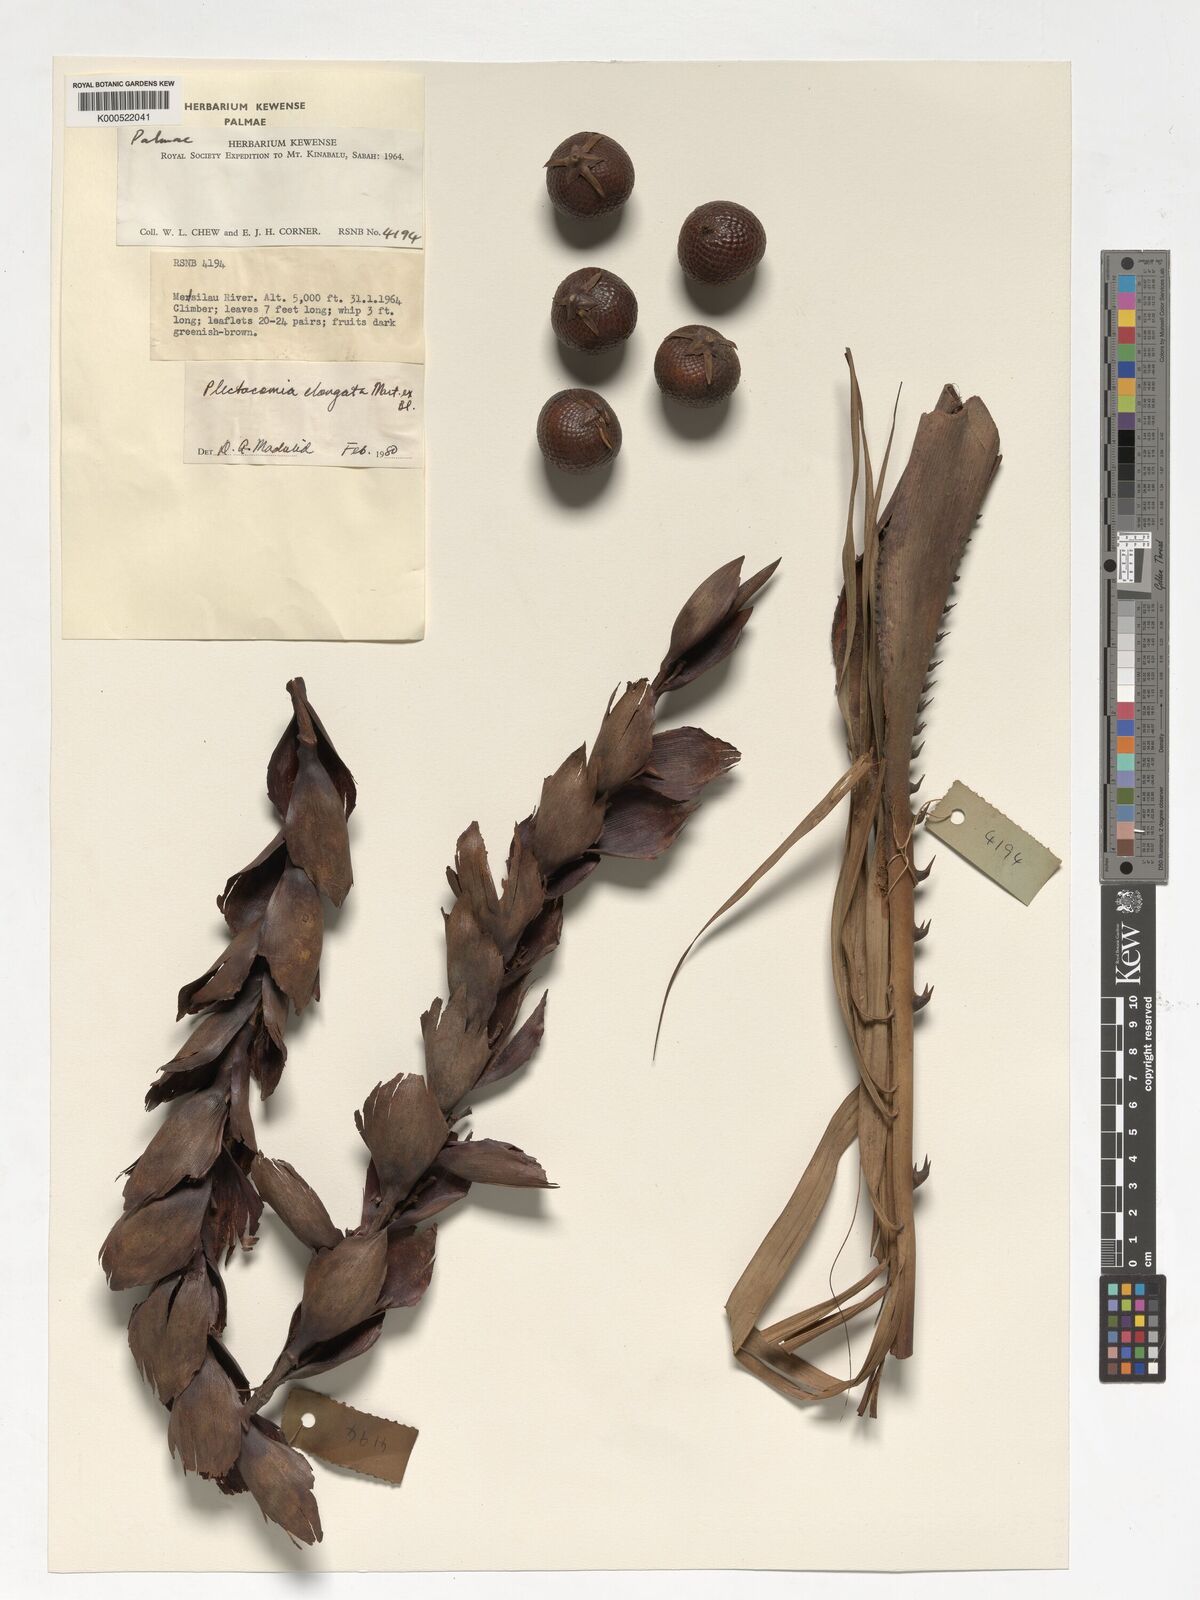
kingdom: Plantae
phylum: Tracheophyta
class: Liliopsida
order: Arecales
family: Arecaceae
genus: Plectocomia
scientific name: Plectocomia elongata
